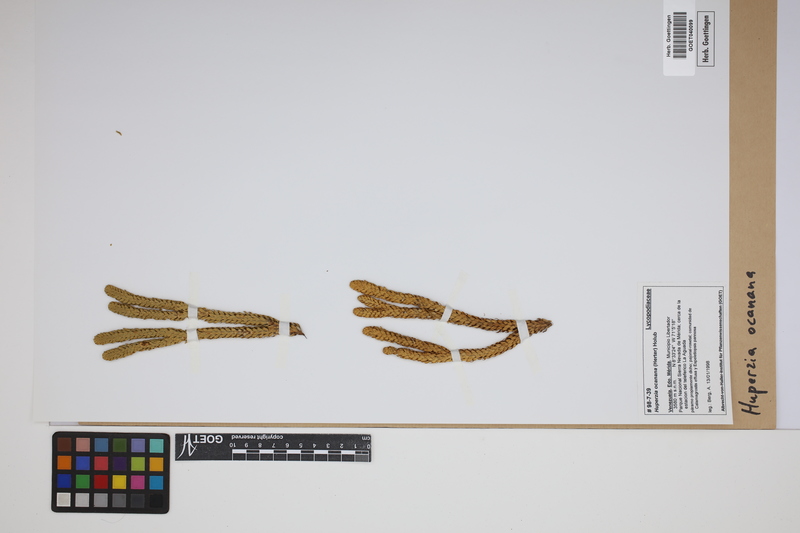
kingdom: Plantae
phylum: Tracheophyta
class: Lycopodiopsida
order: Lycopodiales
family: Lycopodiaceae
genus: Phlegmariurus
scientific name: Phlegmariurus ocananus
